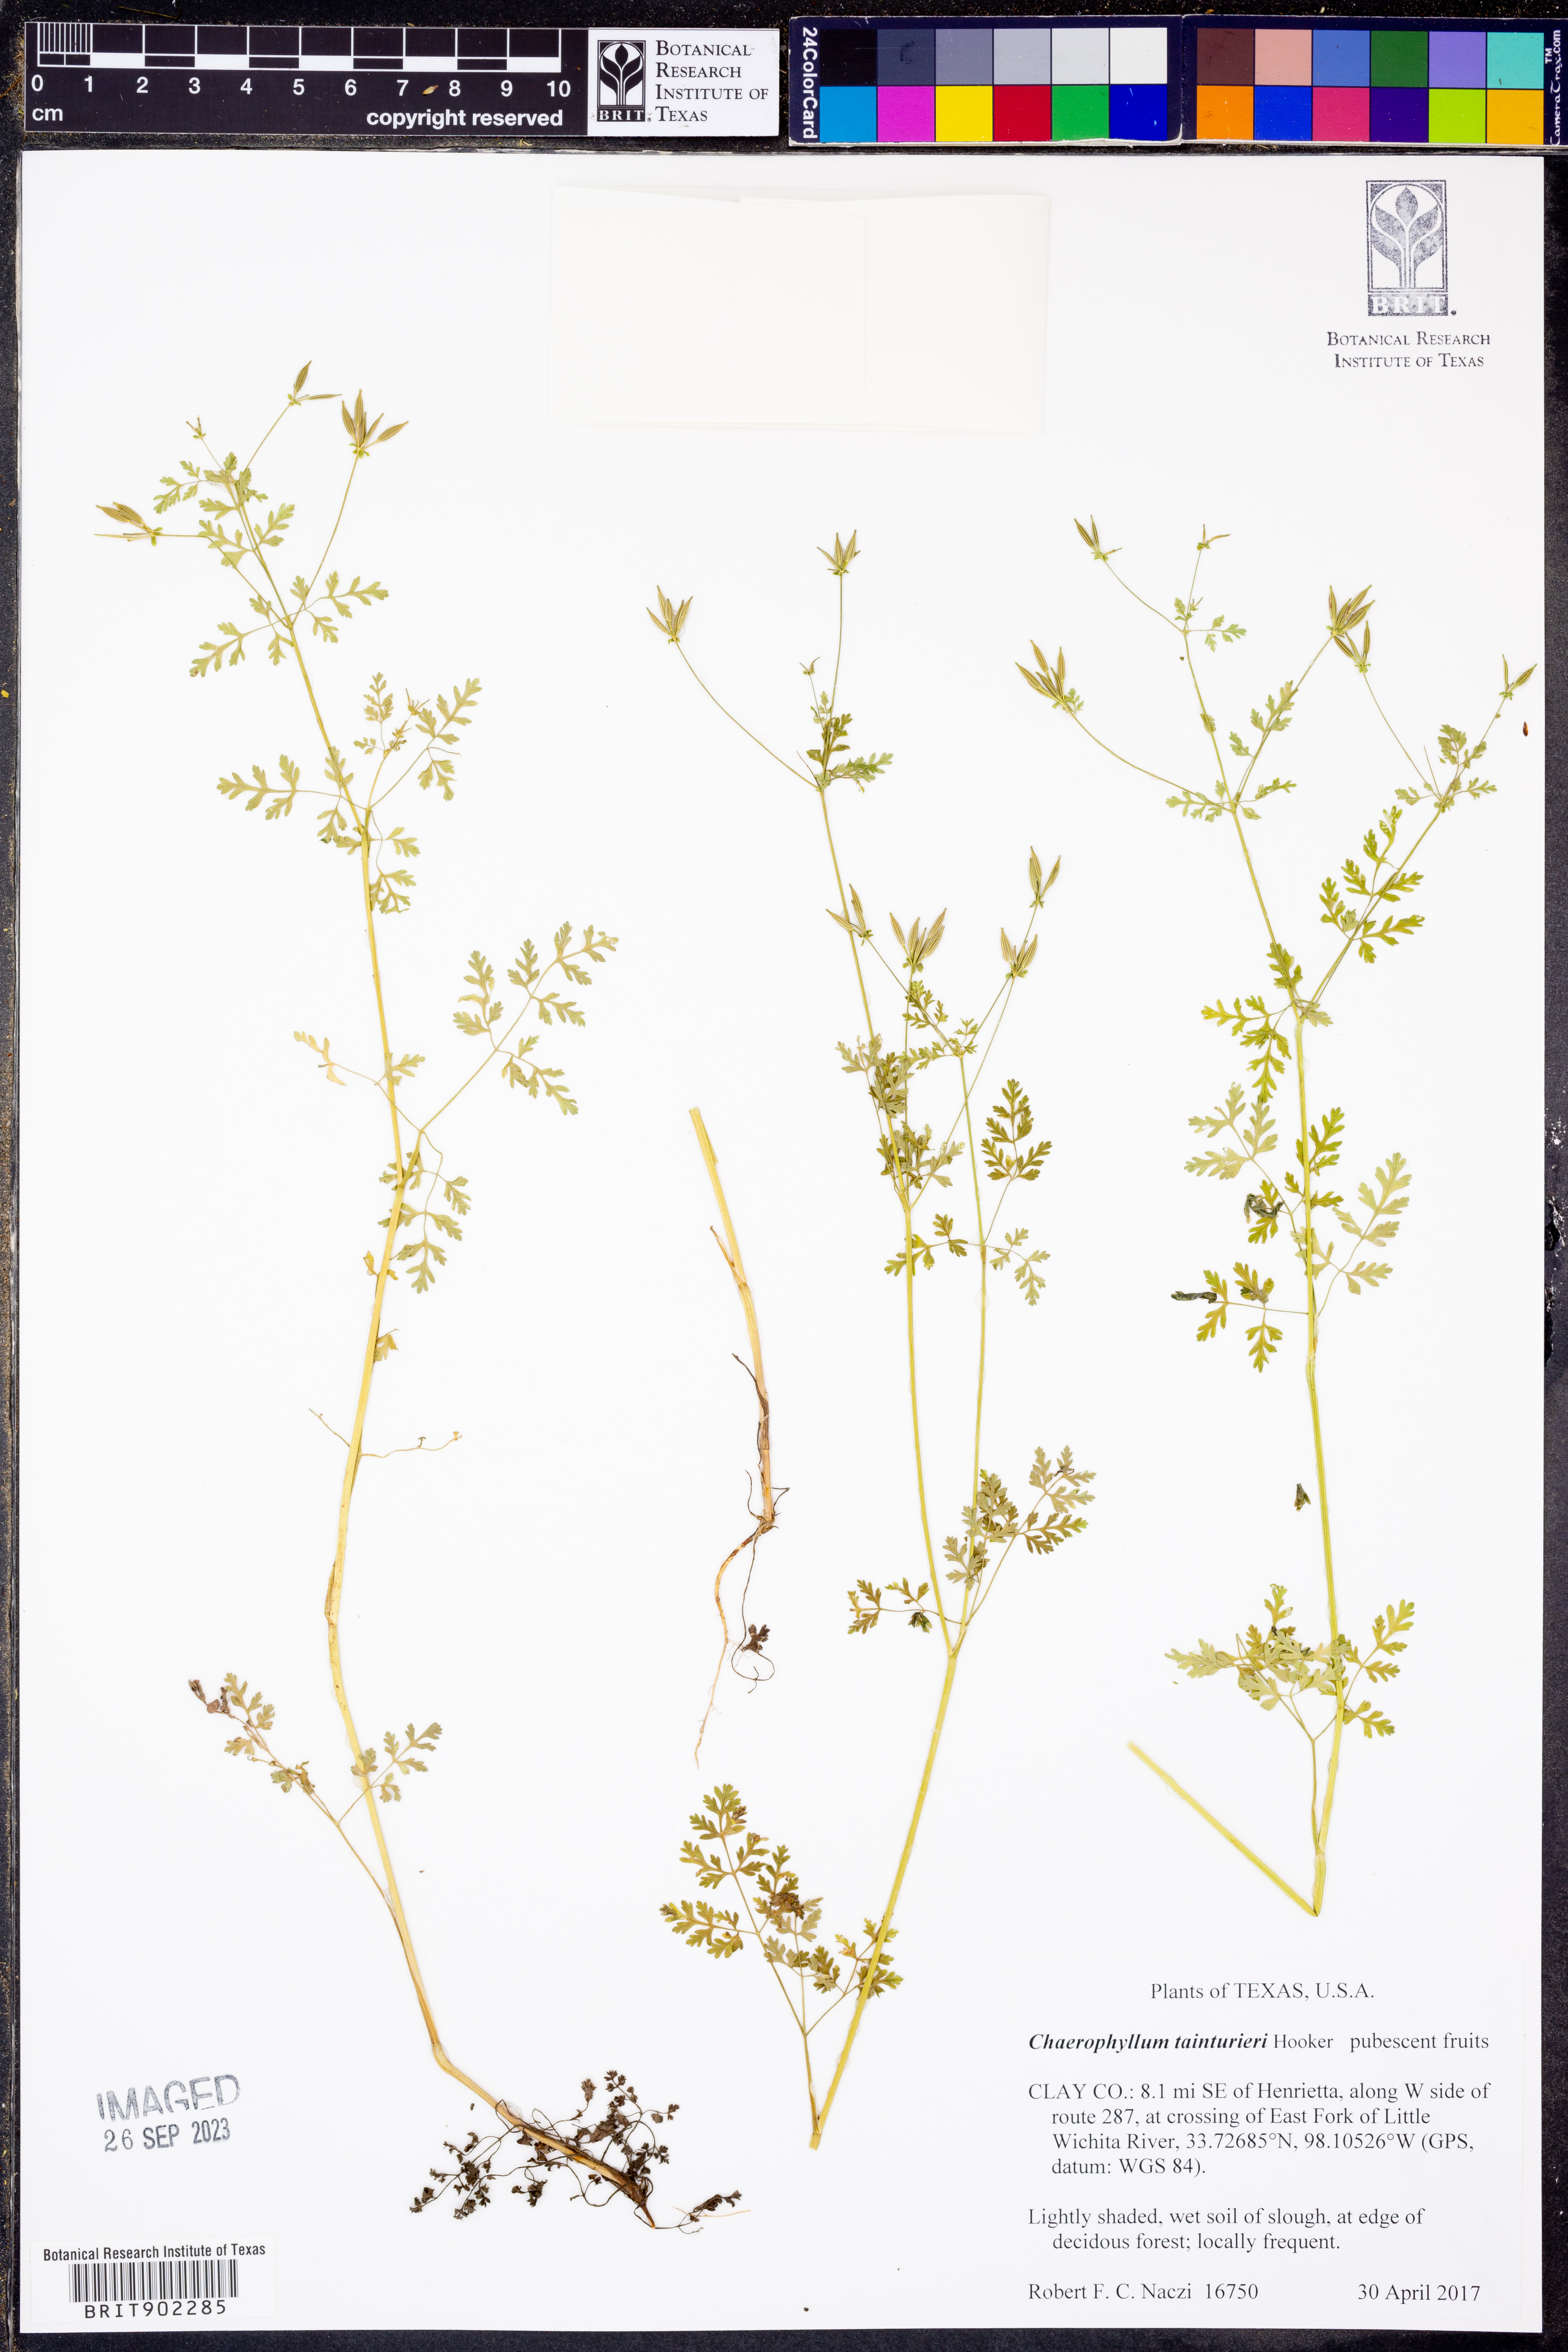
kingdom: Plantae
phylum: Tracheophyta
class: Magnoliopsida
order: Apiales
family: Apiaceae
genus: Chaerophyllum
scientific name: Chaerophyllum tainturieri
